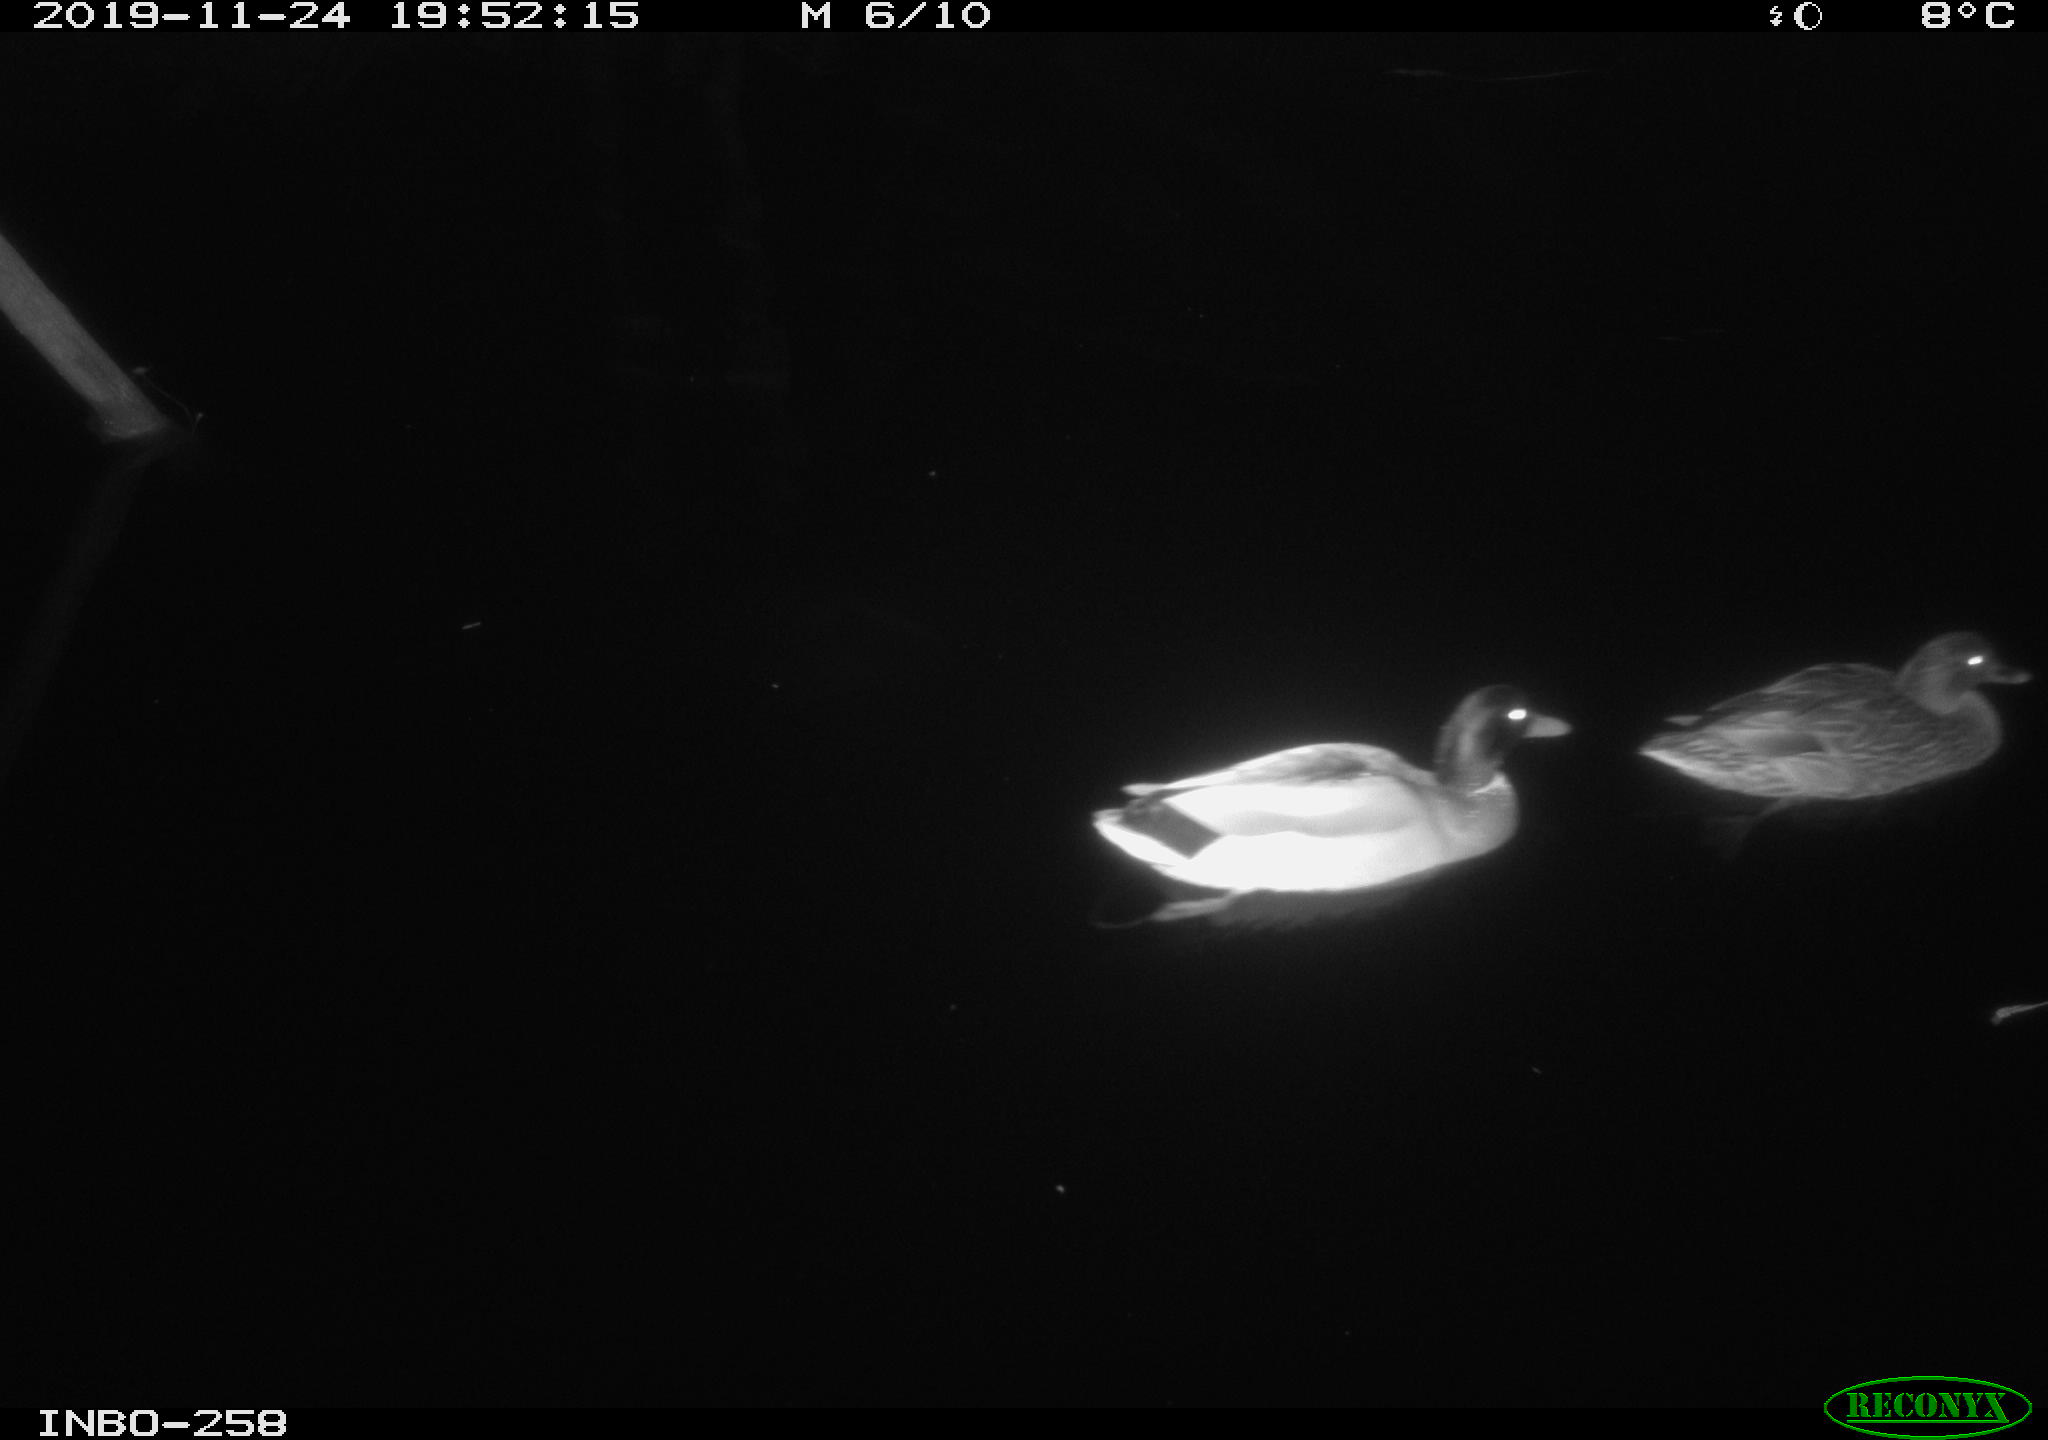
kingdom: Animalia
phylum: Chordata
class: Aves
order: Anseriformes
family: Anatidae
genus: Anas
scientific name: Anas platyrhynchos
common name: Mallard
